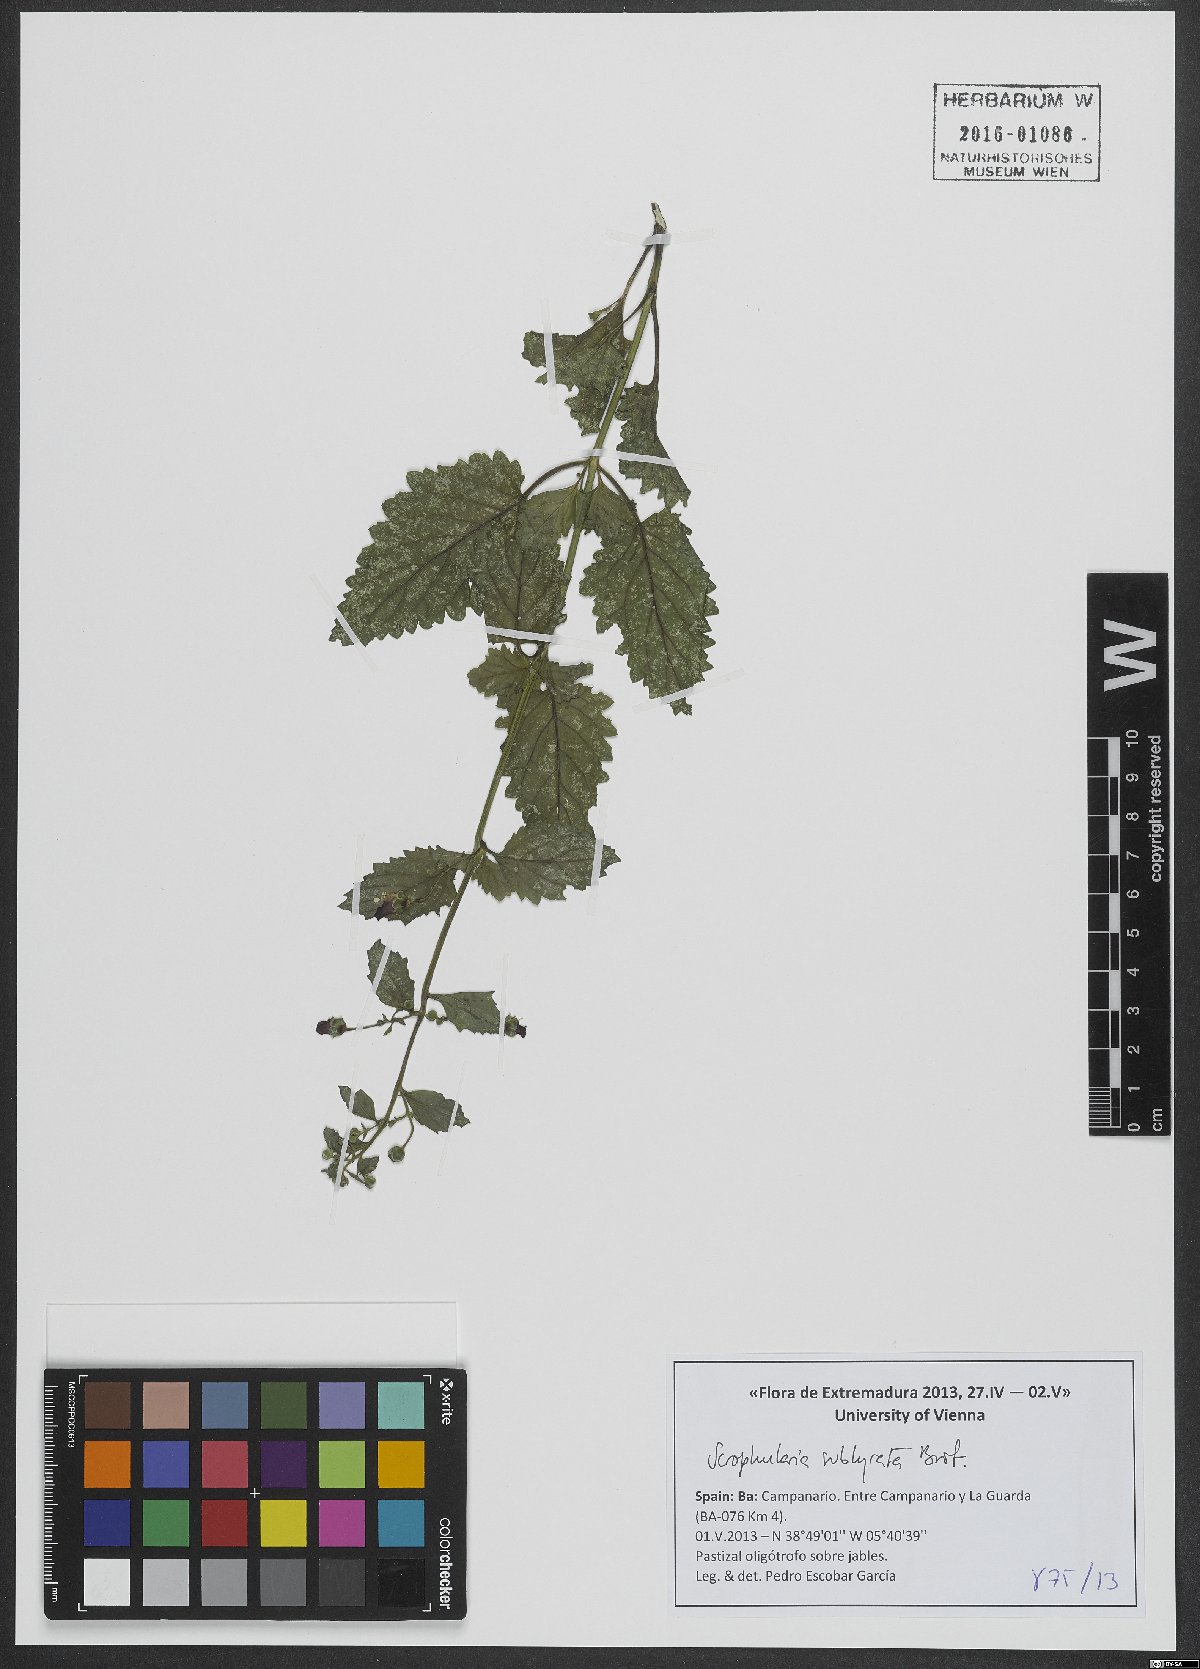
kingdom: Plantae
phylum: Tracheophyta
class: Magnoliopsida
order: Lamiales
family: Scrophulariaceae
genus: Scrophularia
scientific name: Scrophularia sublyrata
